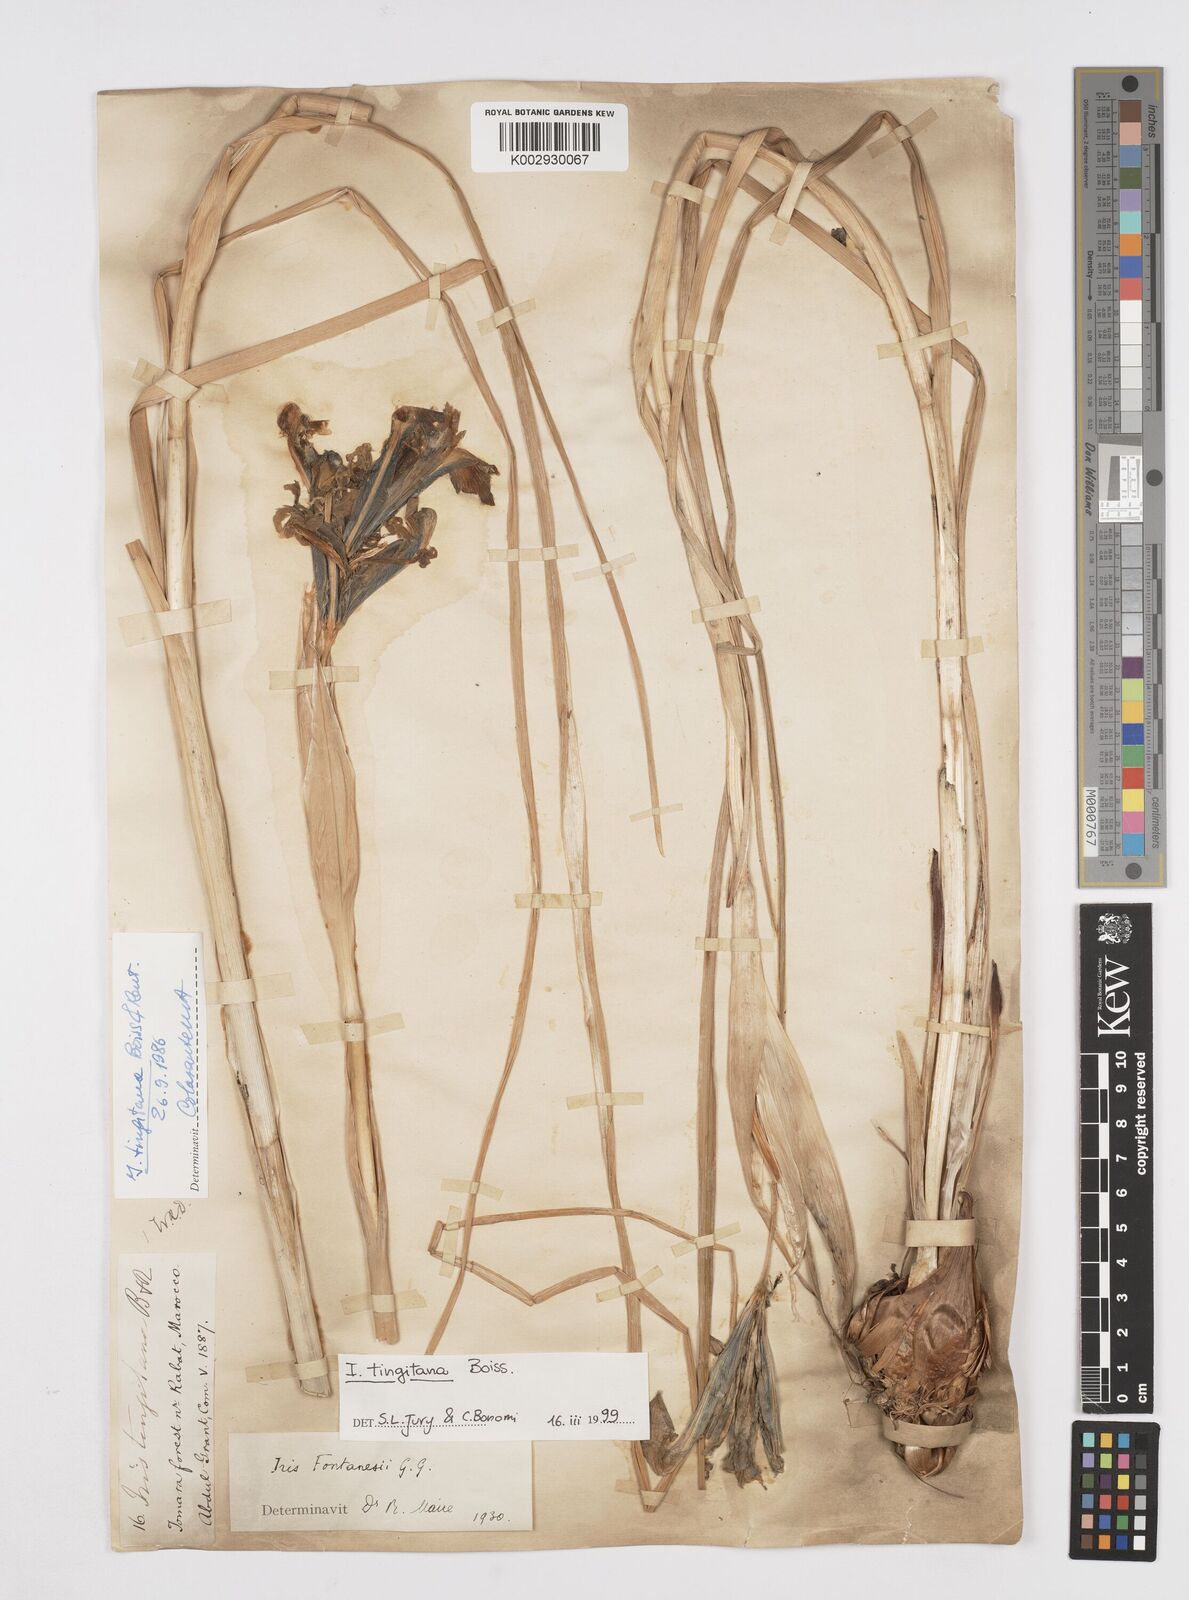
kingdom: Plantae
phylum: Tracheophyta
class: Liliopsida
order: Asparagales
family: Iridaceae
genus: Iris
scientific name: Iris tingitana
